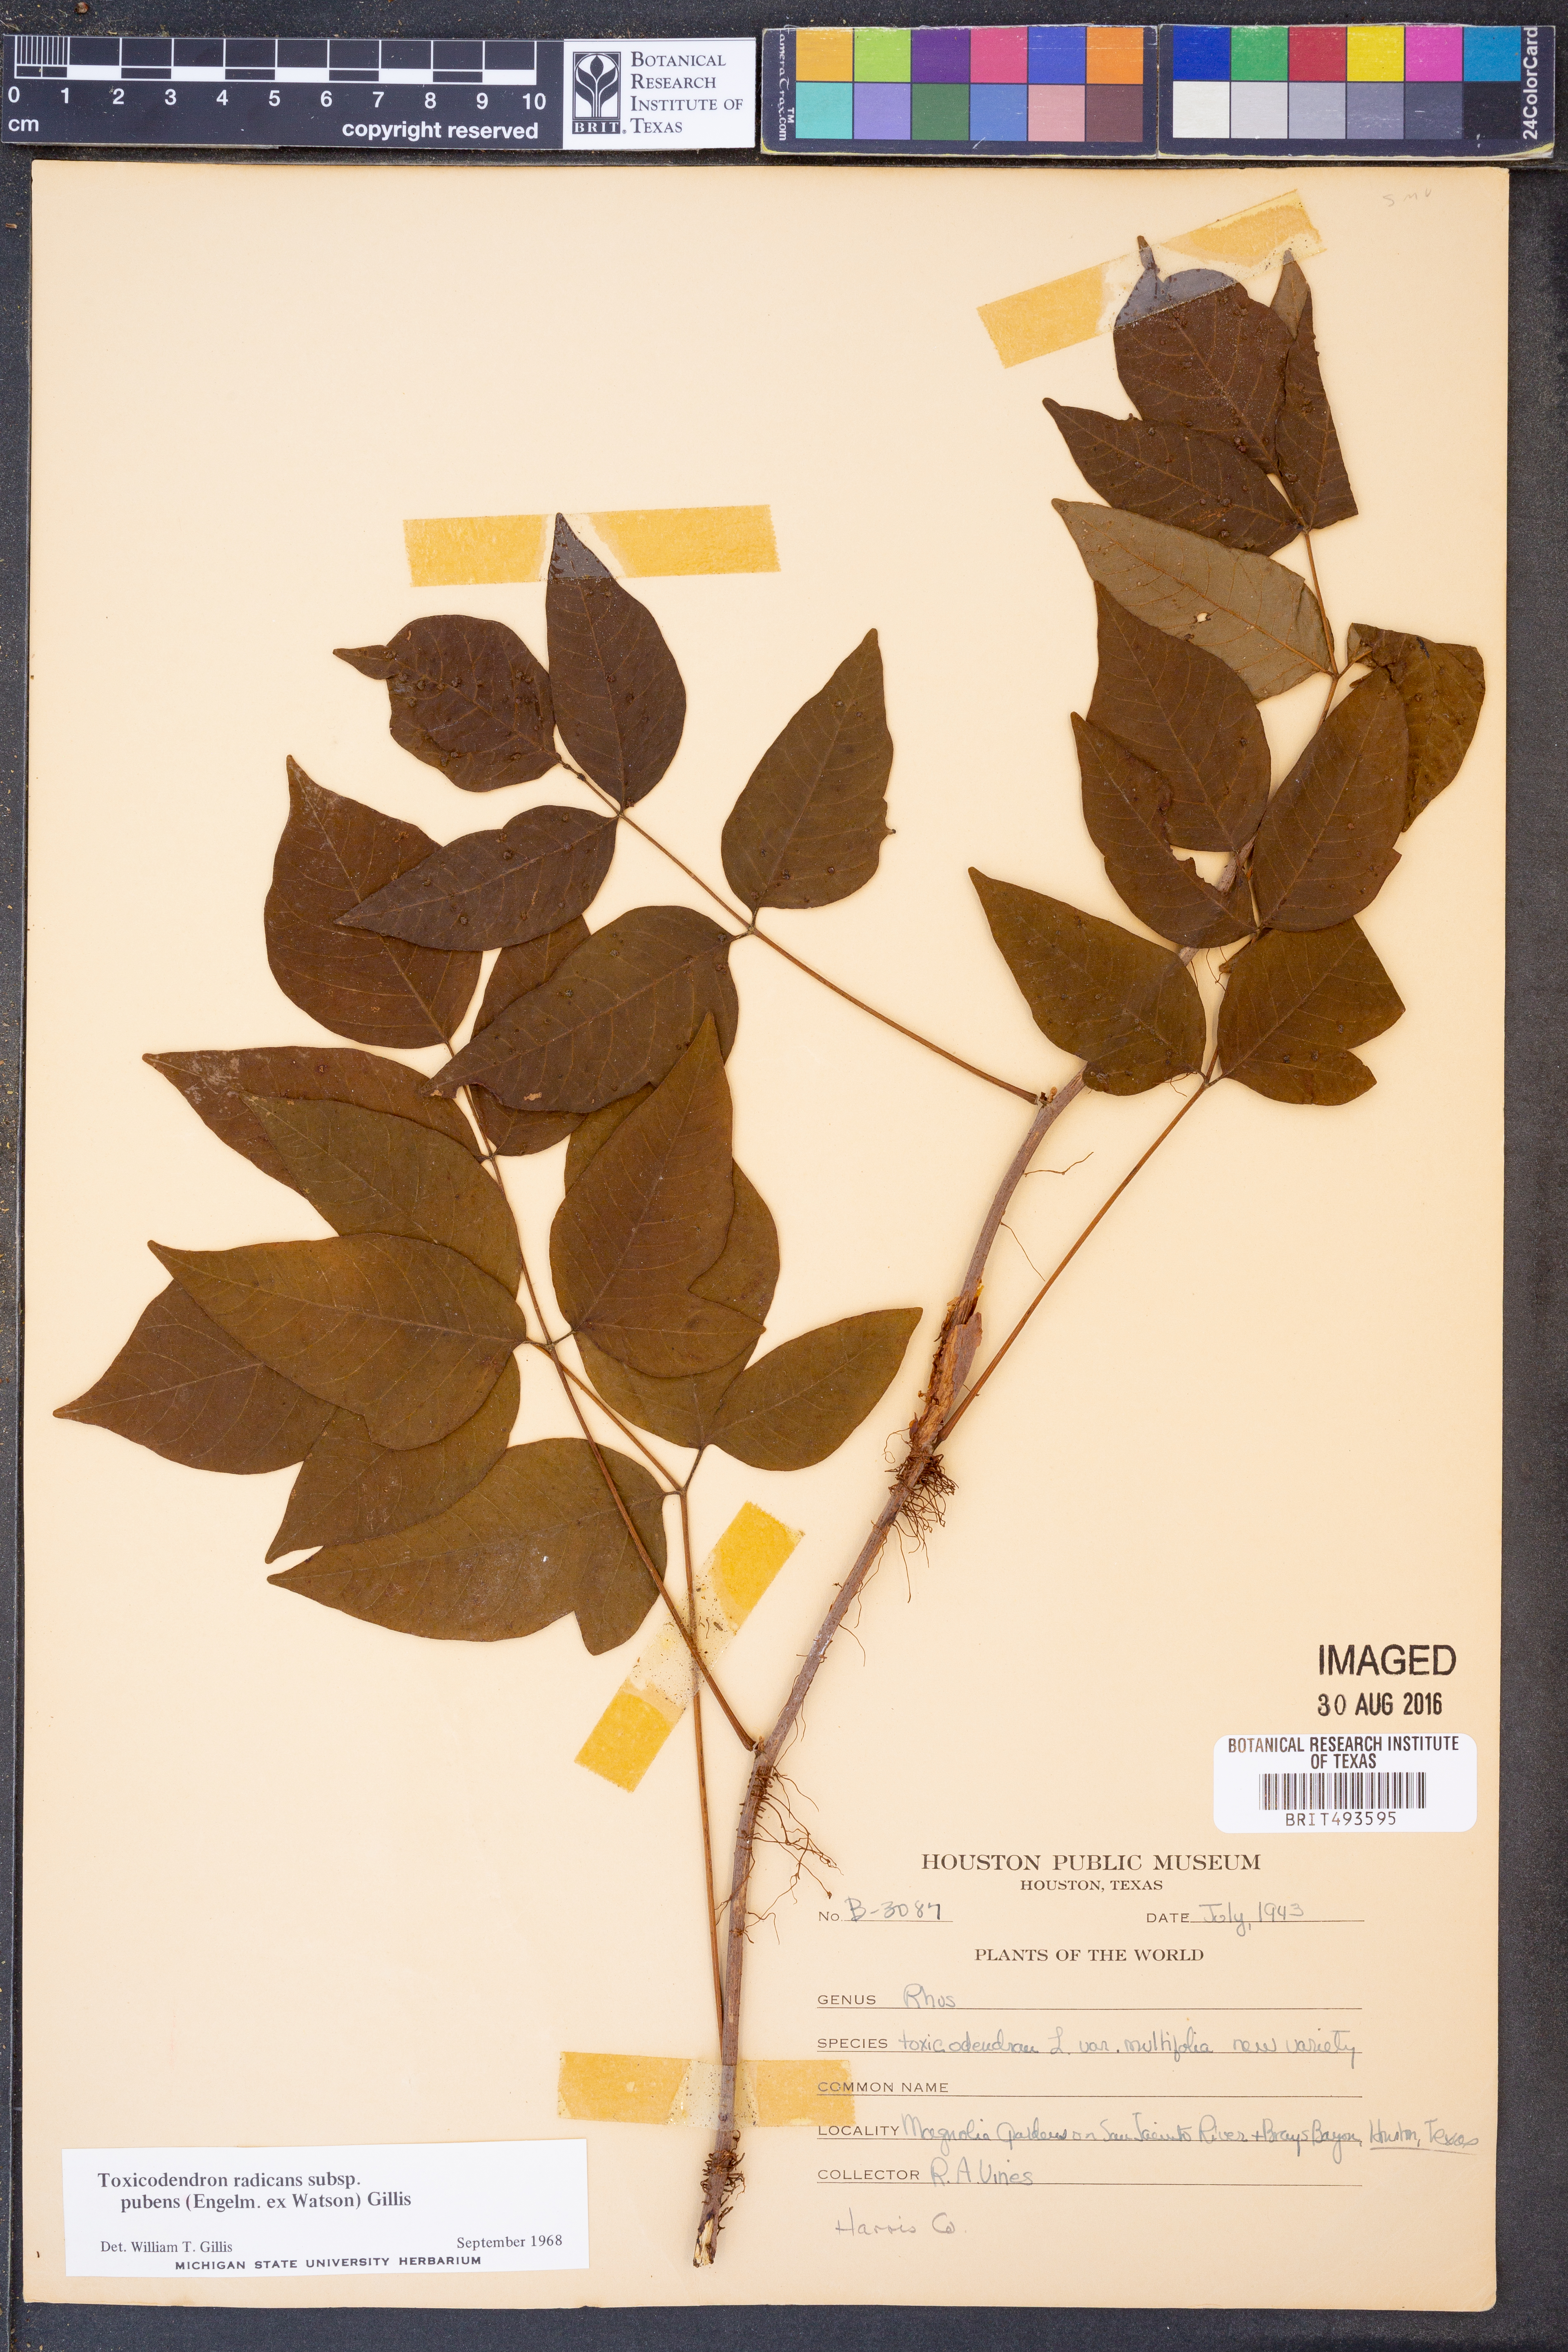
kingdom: Plantae
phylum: Tracheophyta
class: Magnoliopsida
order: Sapindales
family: Anacardiaceae
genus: Toxicodendron
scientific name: Toxicodendron radicans
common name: Poison ivy
